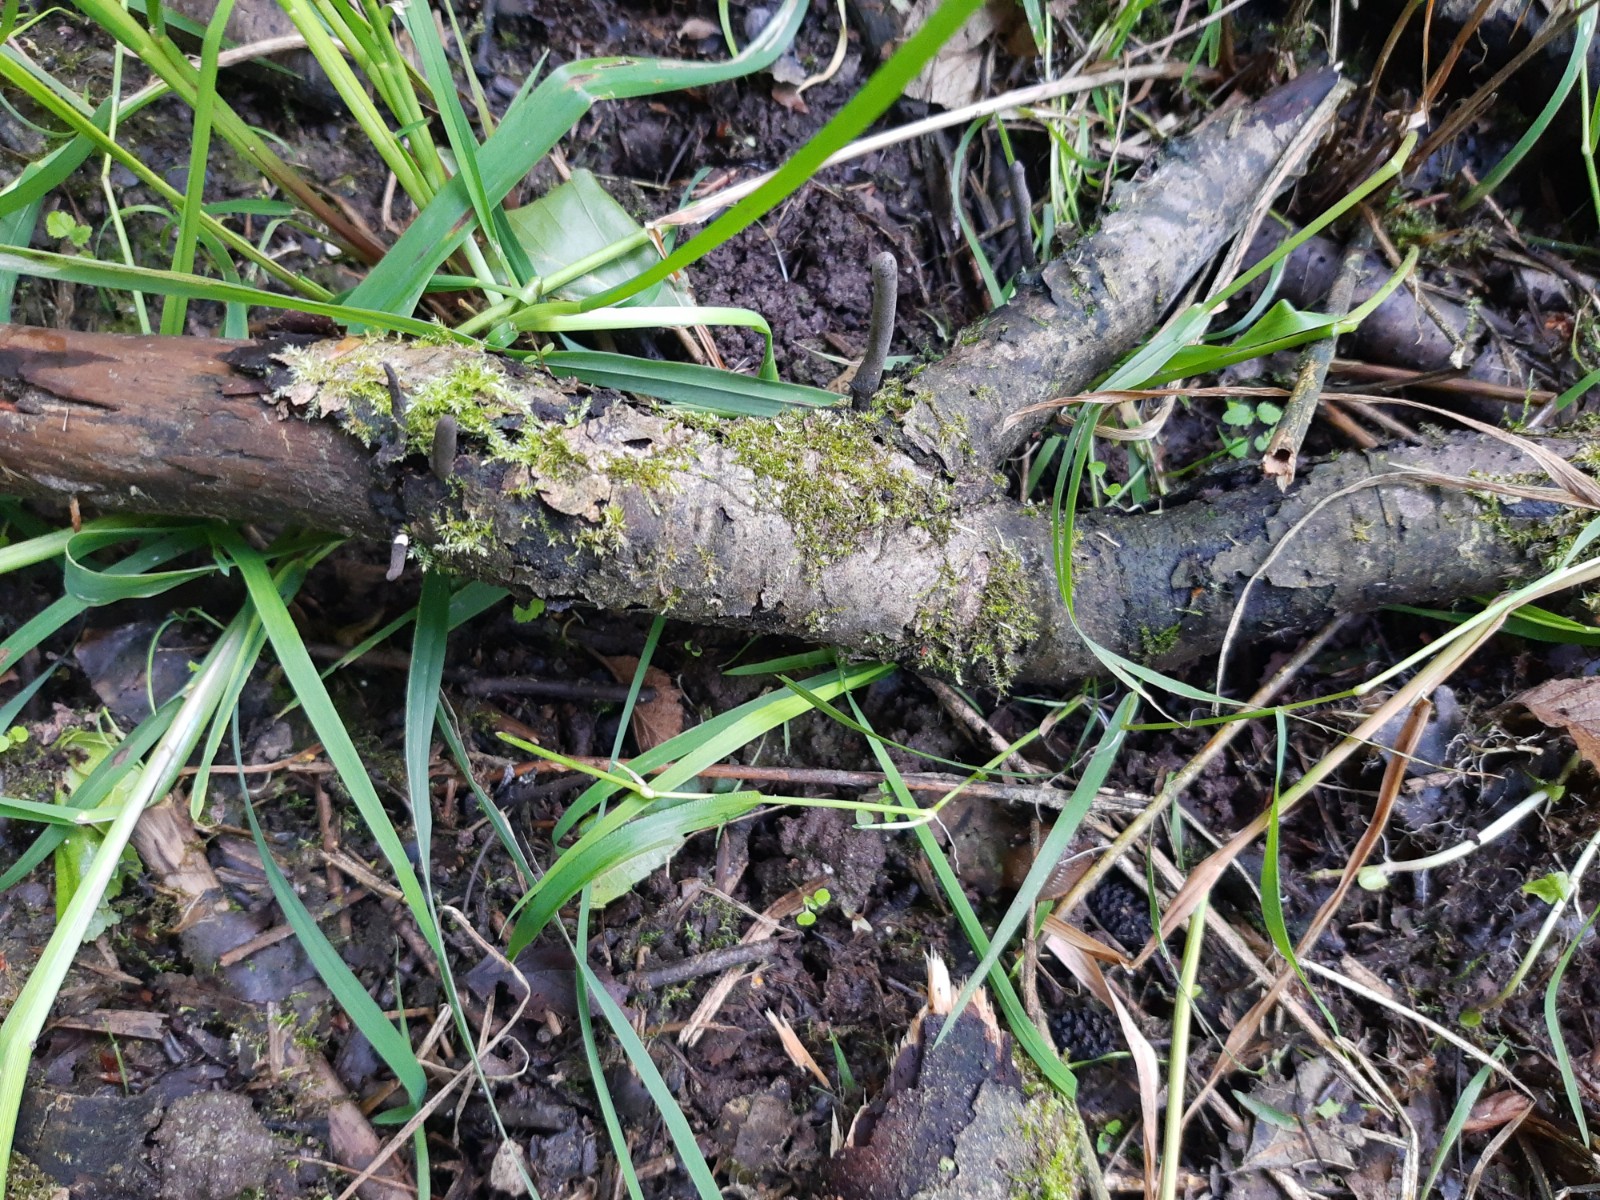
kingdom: Fungi
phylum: Ascomycota
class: Sordariomycetes
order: Xylariales
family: Xylariaceae
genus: Xylaria
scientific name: Xylaria longipes
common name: slank stødsvamp
